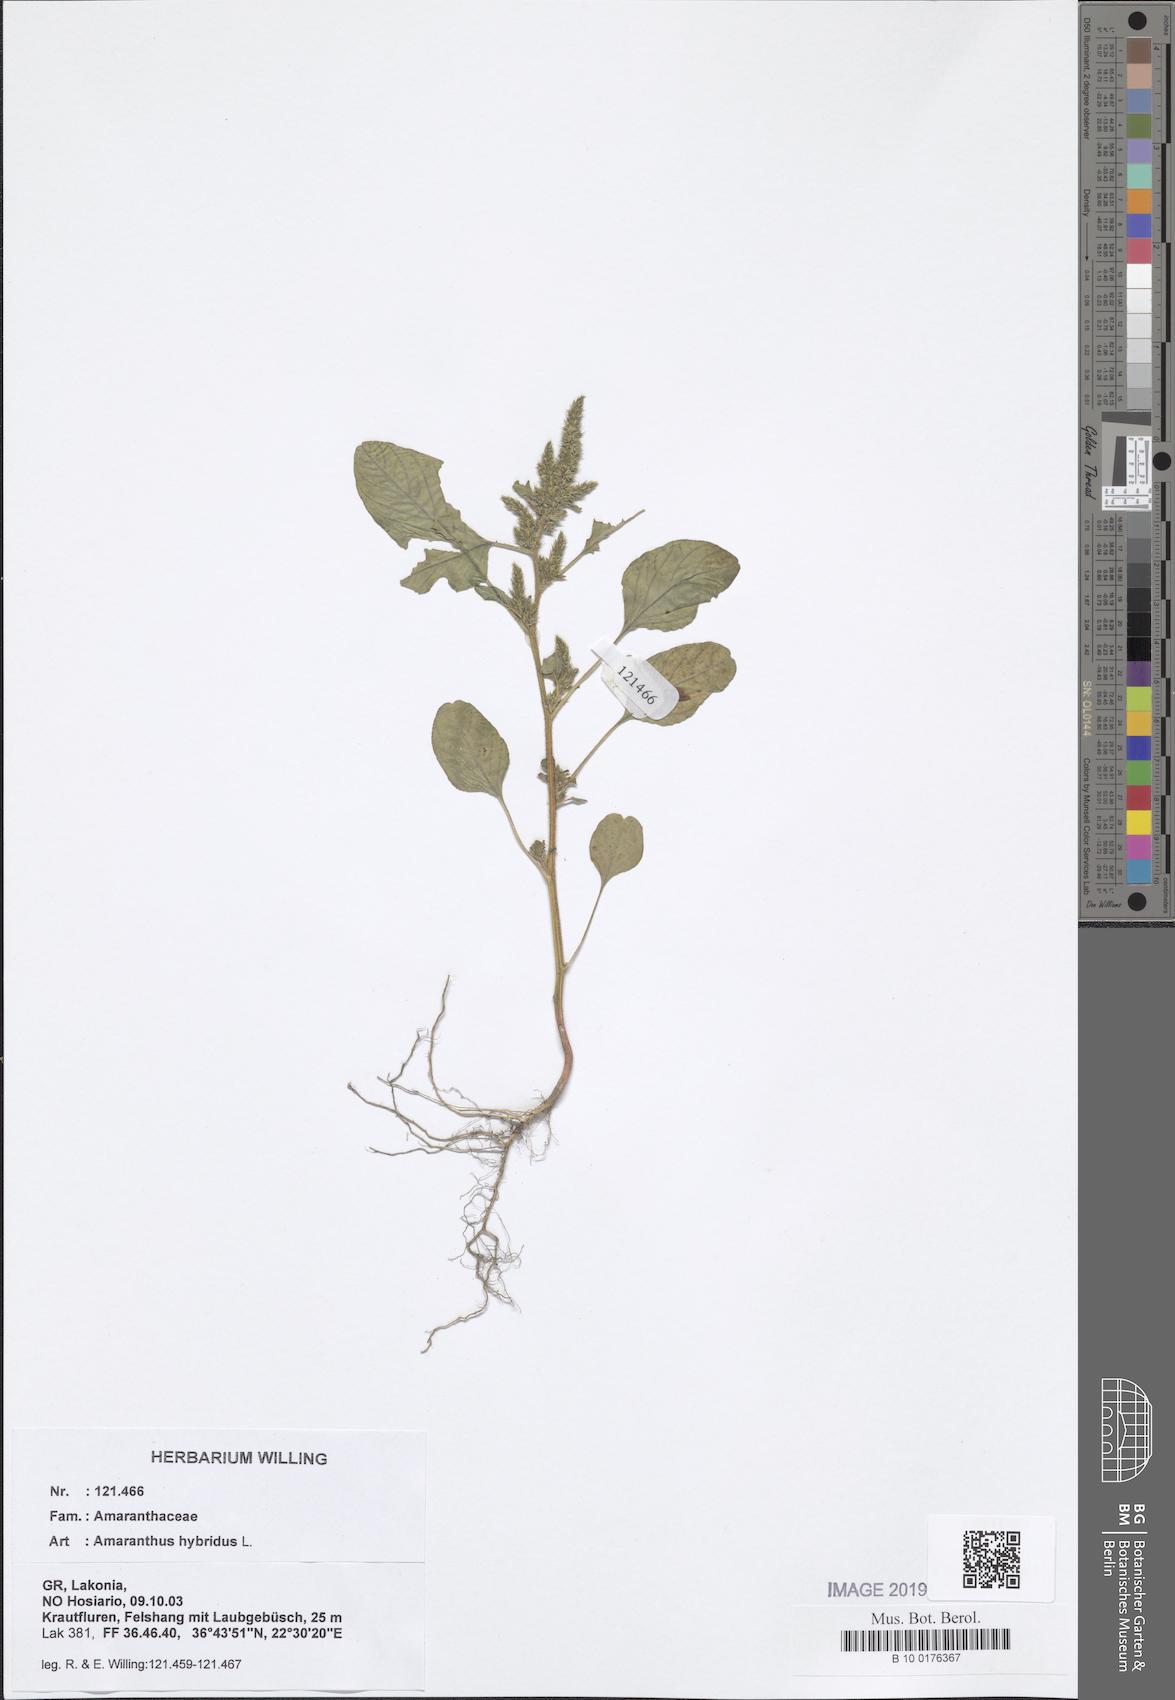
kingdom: Plantae
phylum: Tracheophyta
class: Magnoliopsida
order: Caryophyllales
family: Amaranthaceae
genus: Amaranthus
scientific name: Amaranthus hybridus
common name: Green amaranth
